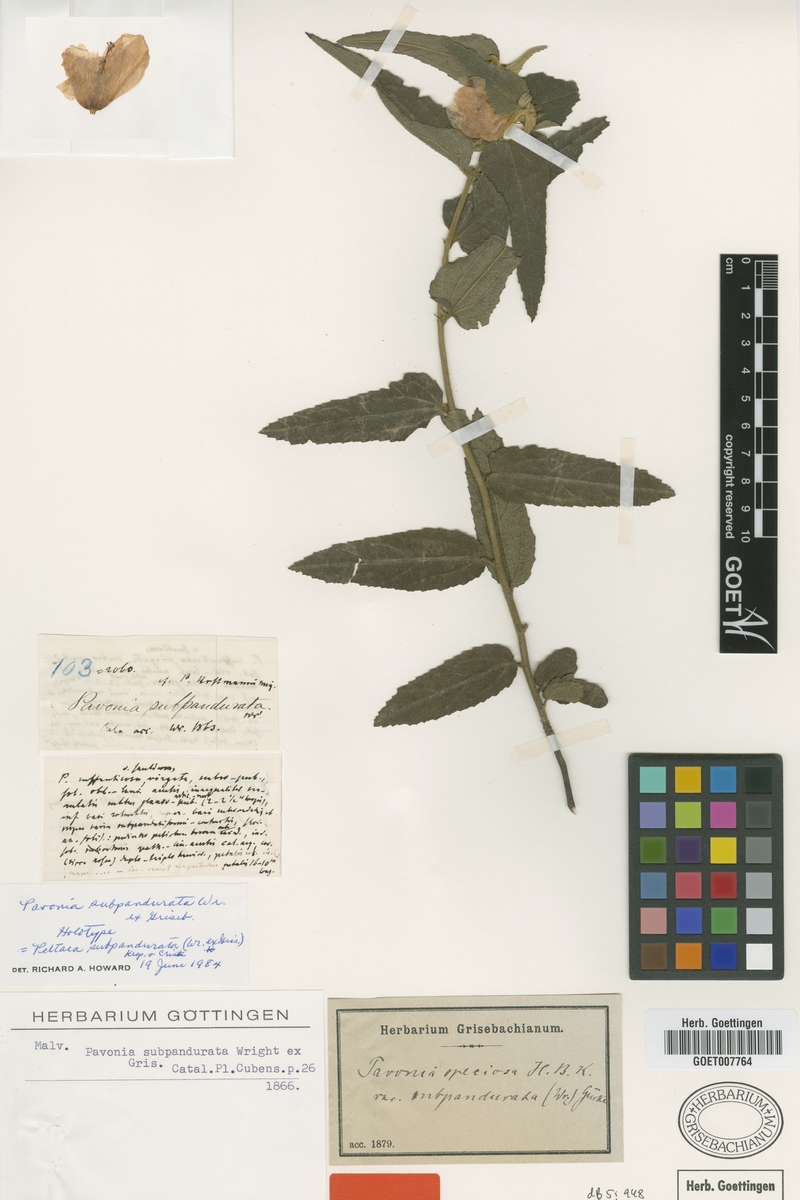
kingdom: Plantae
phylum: Tracheophyta
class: Magnoliopsida
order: Malvales
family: Malvaceae
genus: Peltaea
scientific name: Peltaea subpandurata
